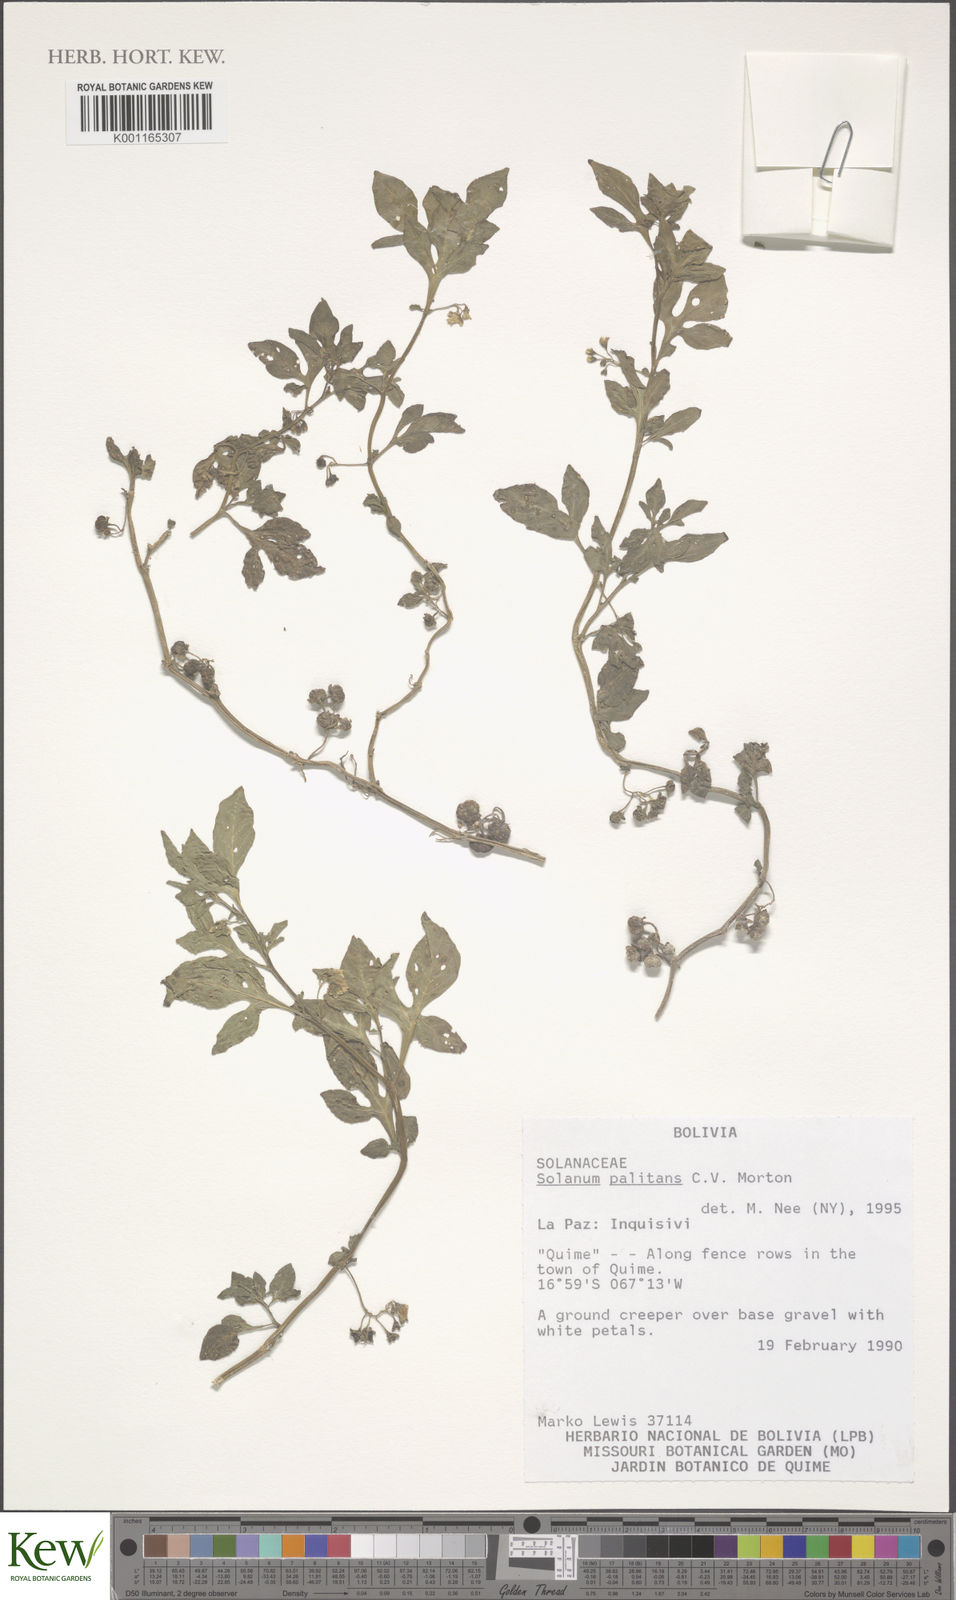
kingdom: Plantae
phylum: Tracheophyta
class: Magnoliopsida
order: Solanales
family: Solanaceae
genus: Solanum
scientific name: Solanum palitans
